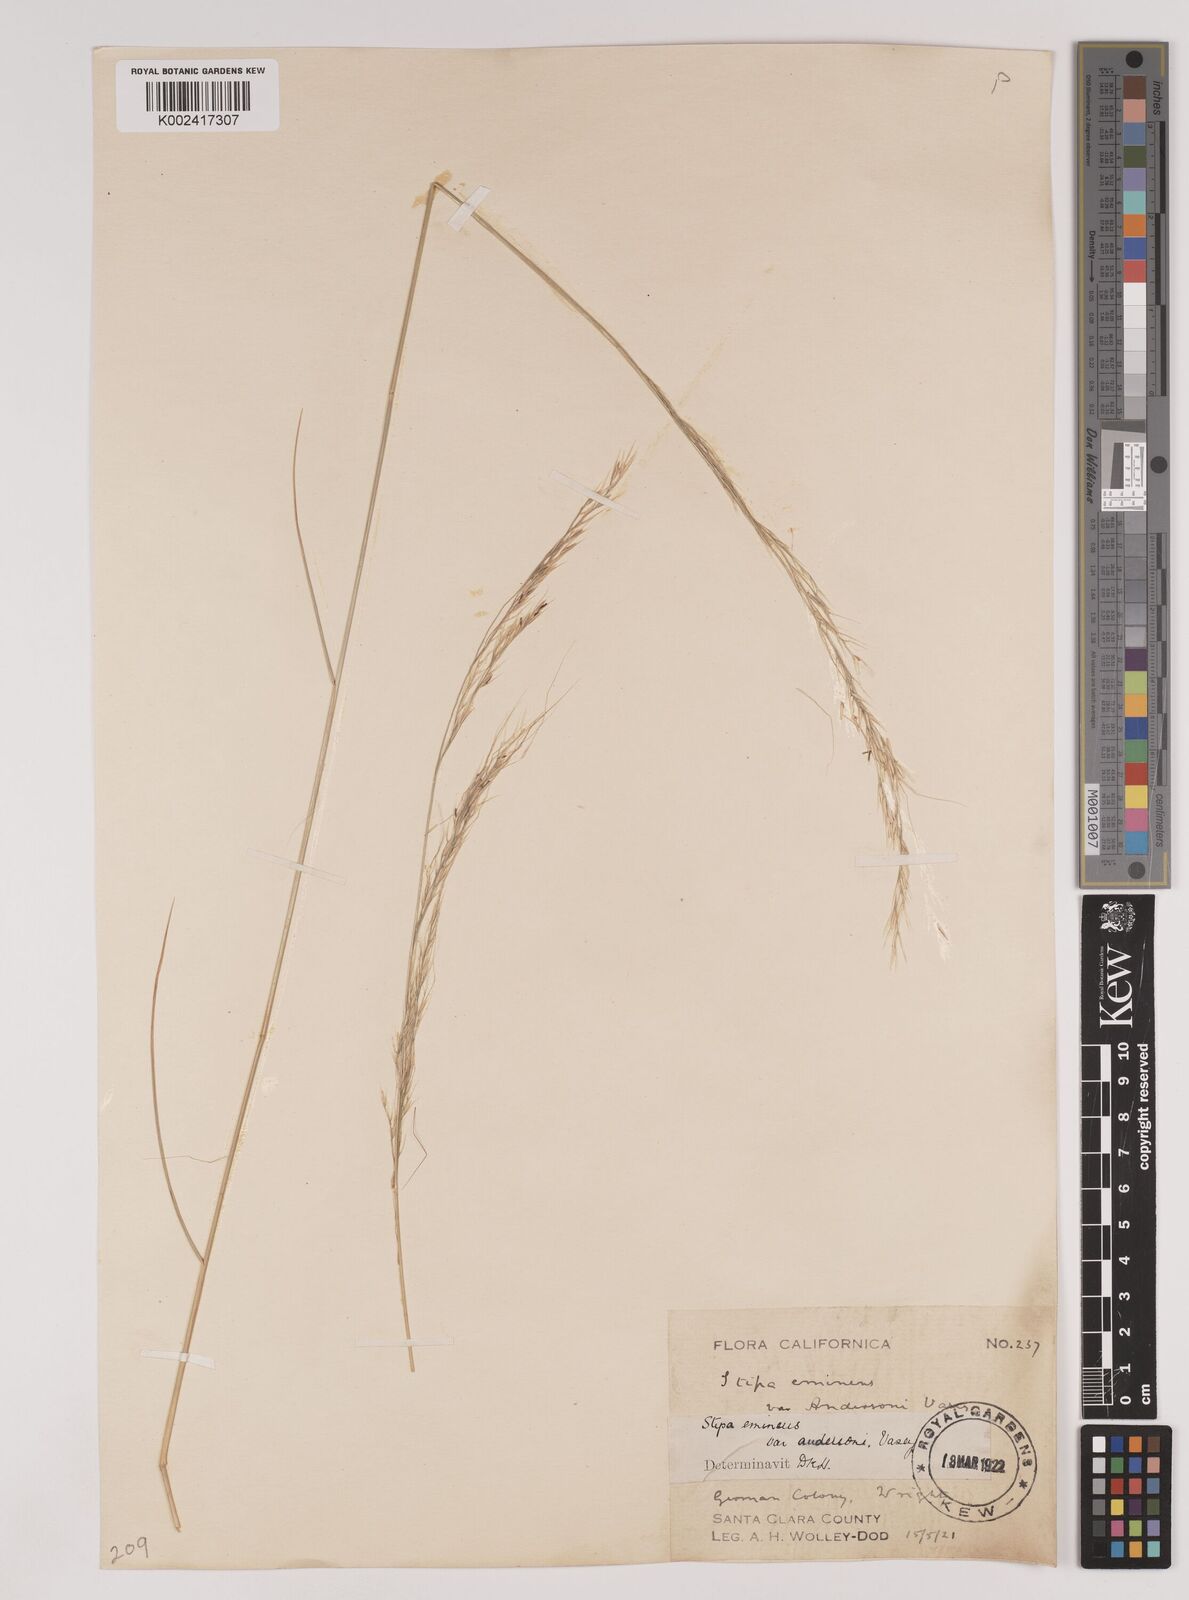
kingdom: Plantae
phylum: Tracheophyta
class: Liliopsida
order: Poales
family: Poaceae
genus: Nassella
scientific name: Nassella lepida
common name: Foothill needlegrass
